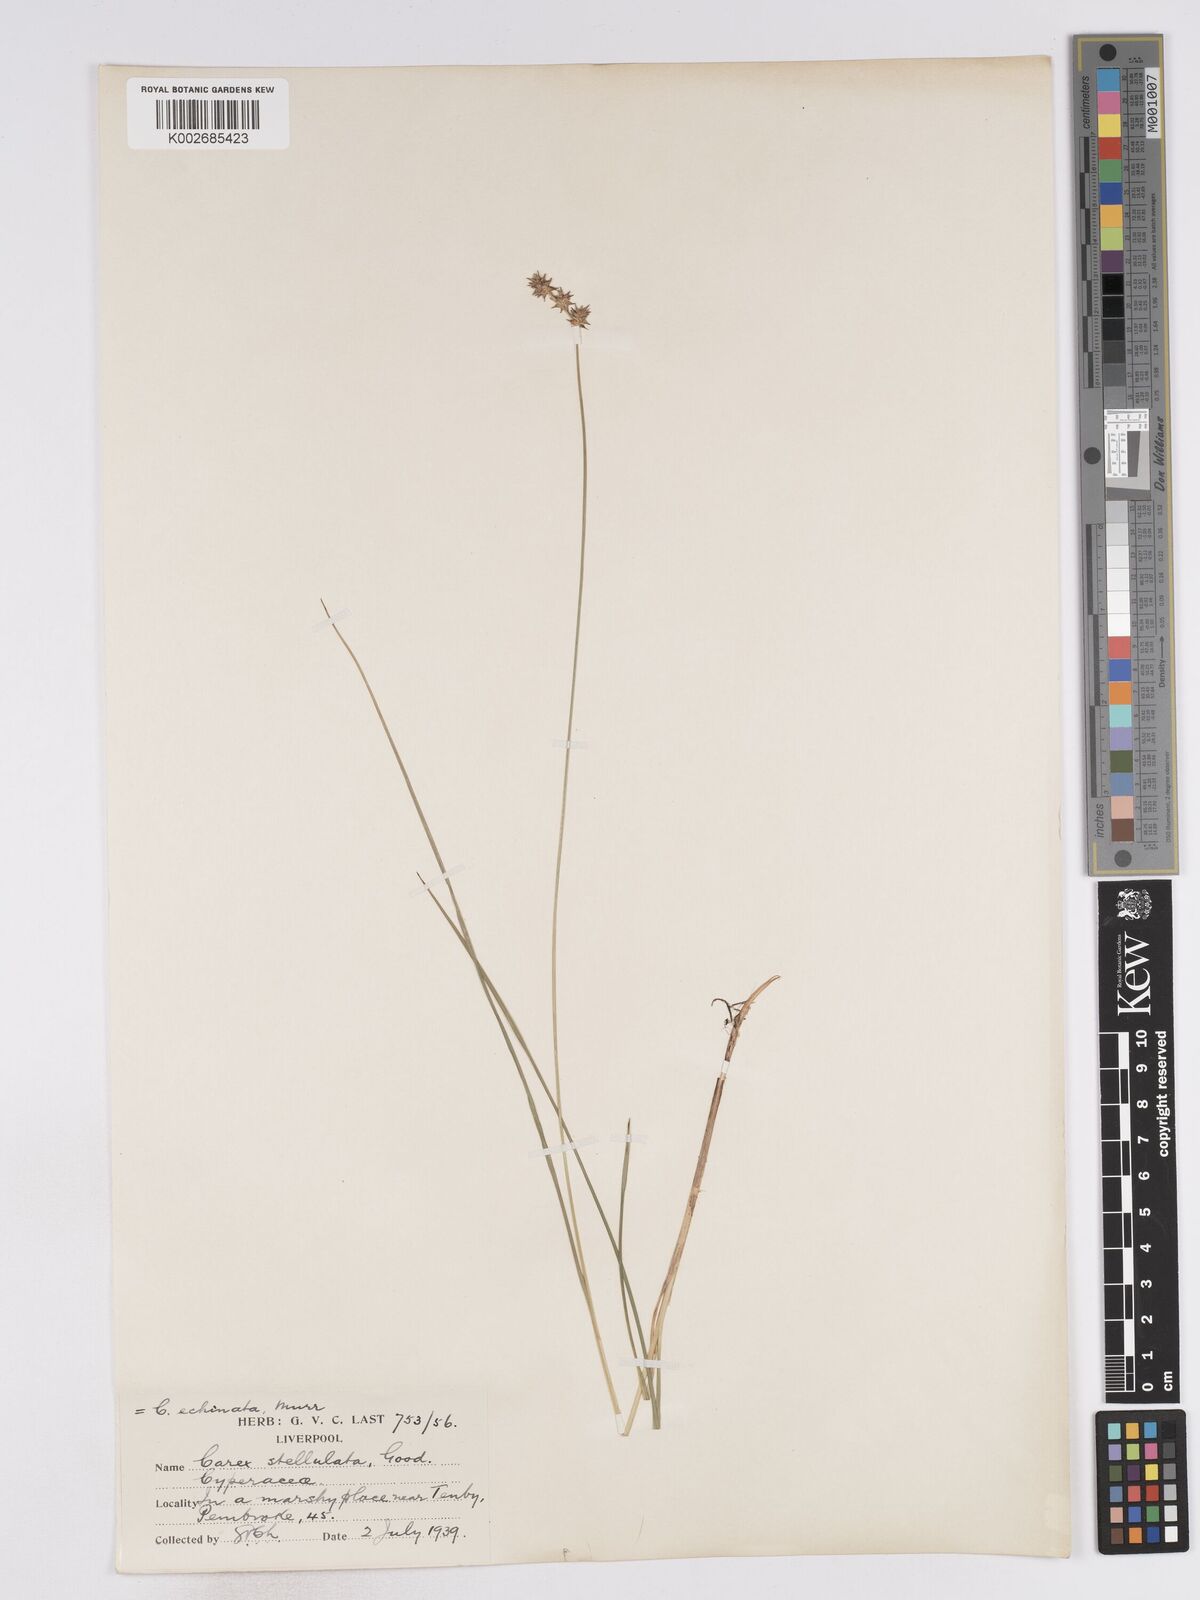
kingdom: Plantae
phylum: Tracheophyta
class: Liliopsida
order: Poales
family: Cyperaceae
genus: Carex
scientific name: Carex echinata
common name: Star sedge
